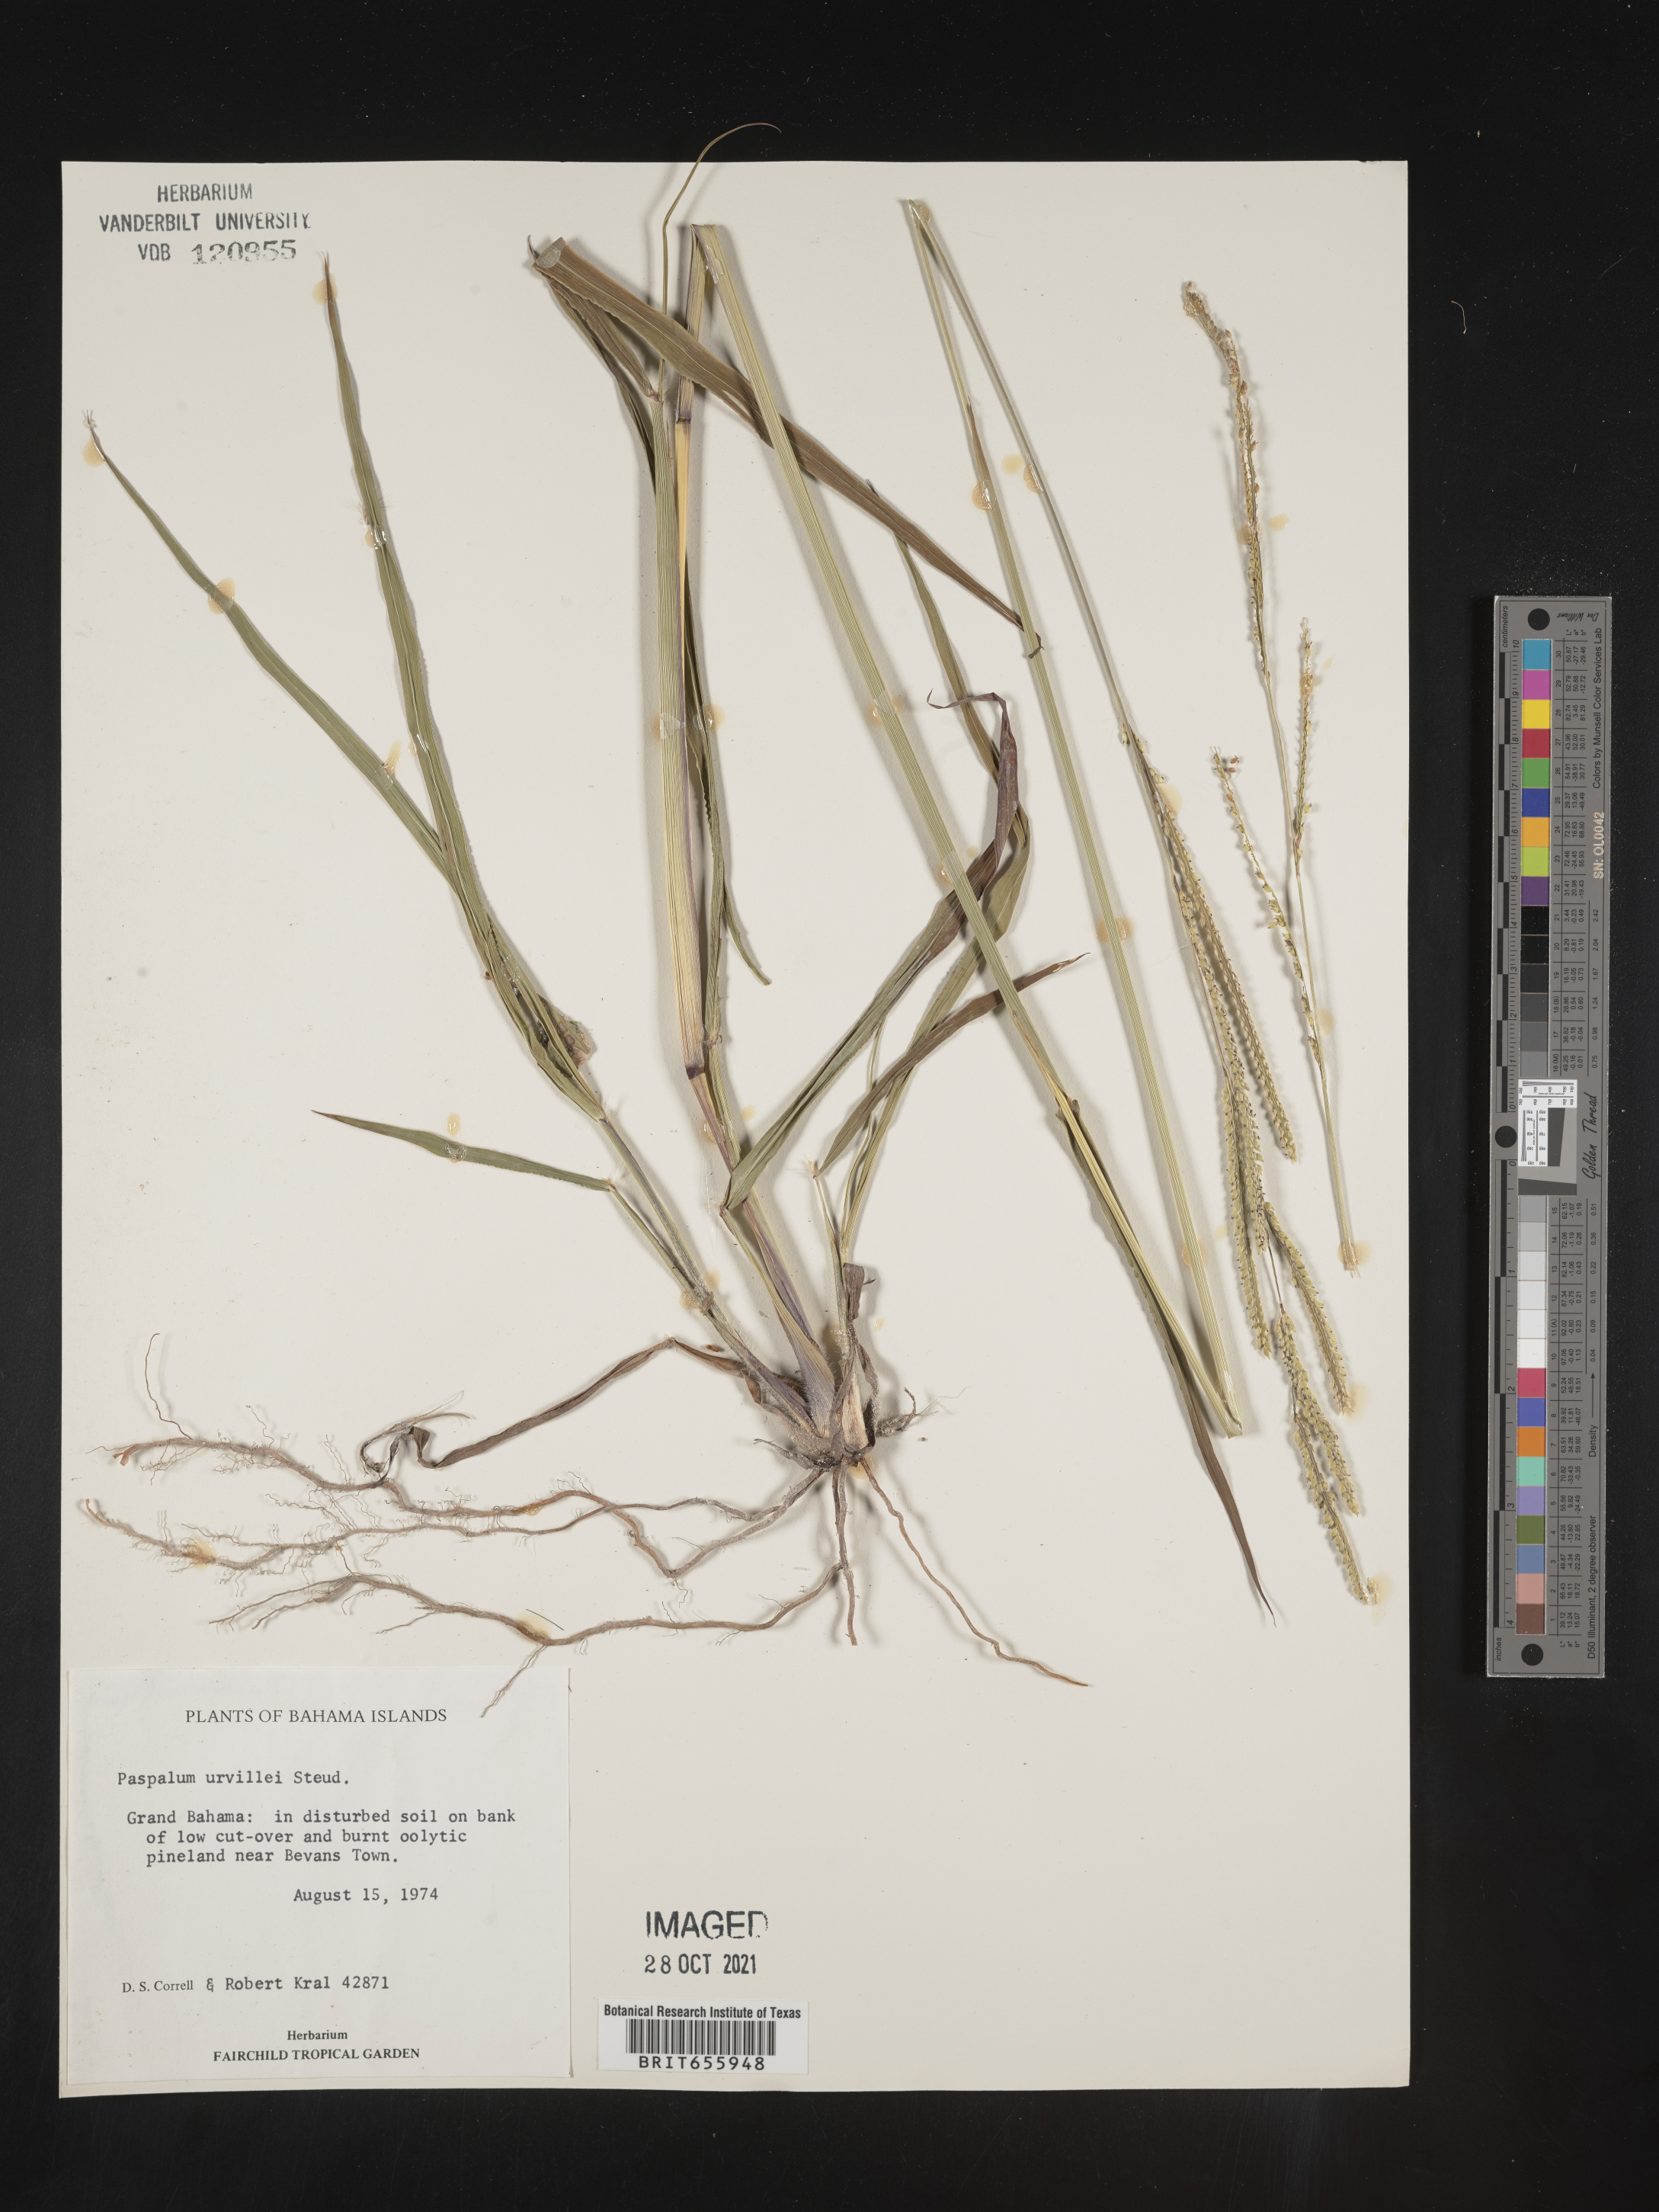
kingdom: Plantae
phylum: Tracheophyta
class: Liliopsida
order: Poales
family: Poaceae
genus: Paspalum
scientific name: Paspalum
